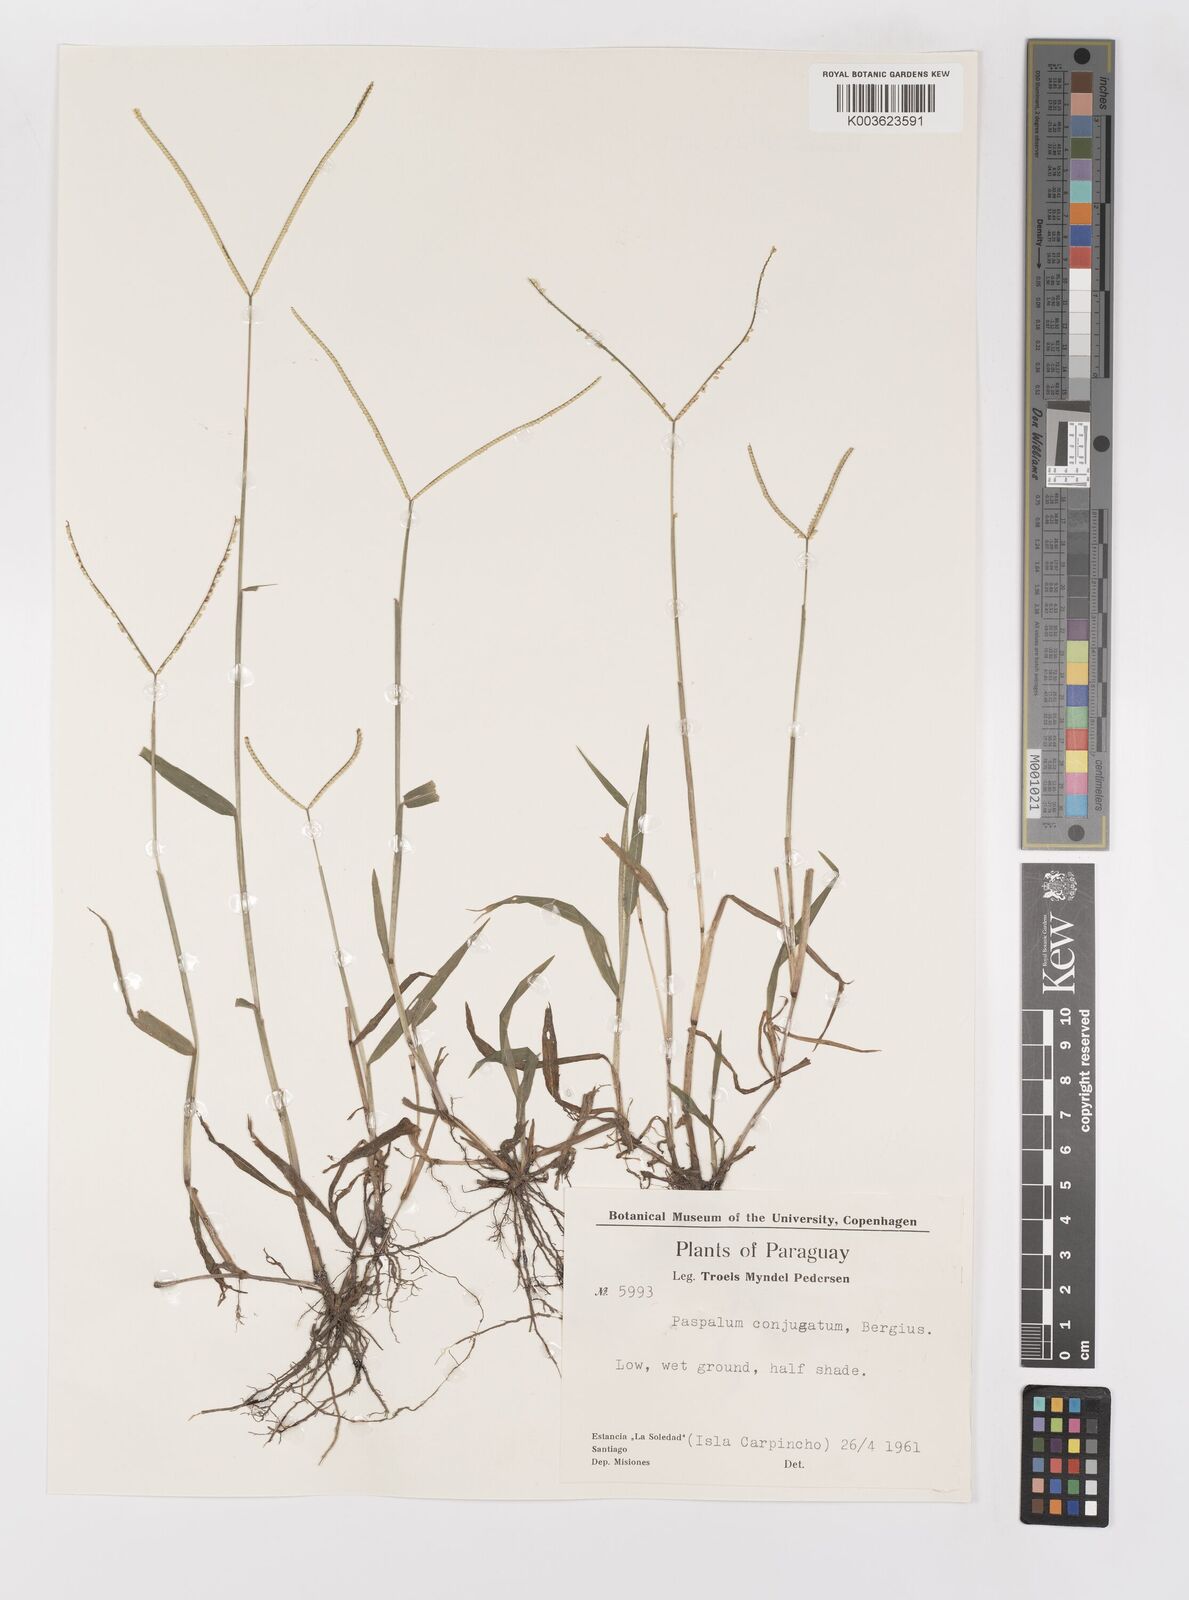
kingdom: Plantae
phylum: Tracheophyta
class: Liliopsida
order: Poales
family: Poaceae
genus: Paspalum
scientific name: Paspalum conjugatum
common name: Hilograss
